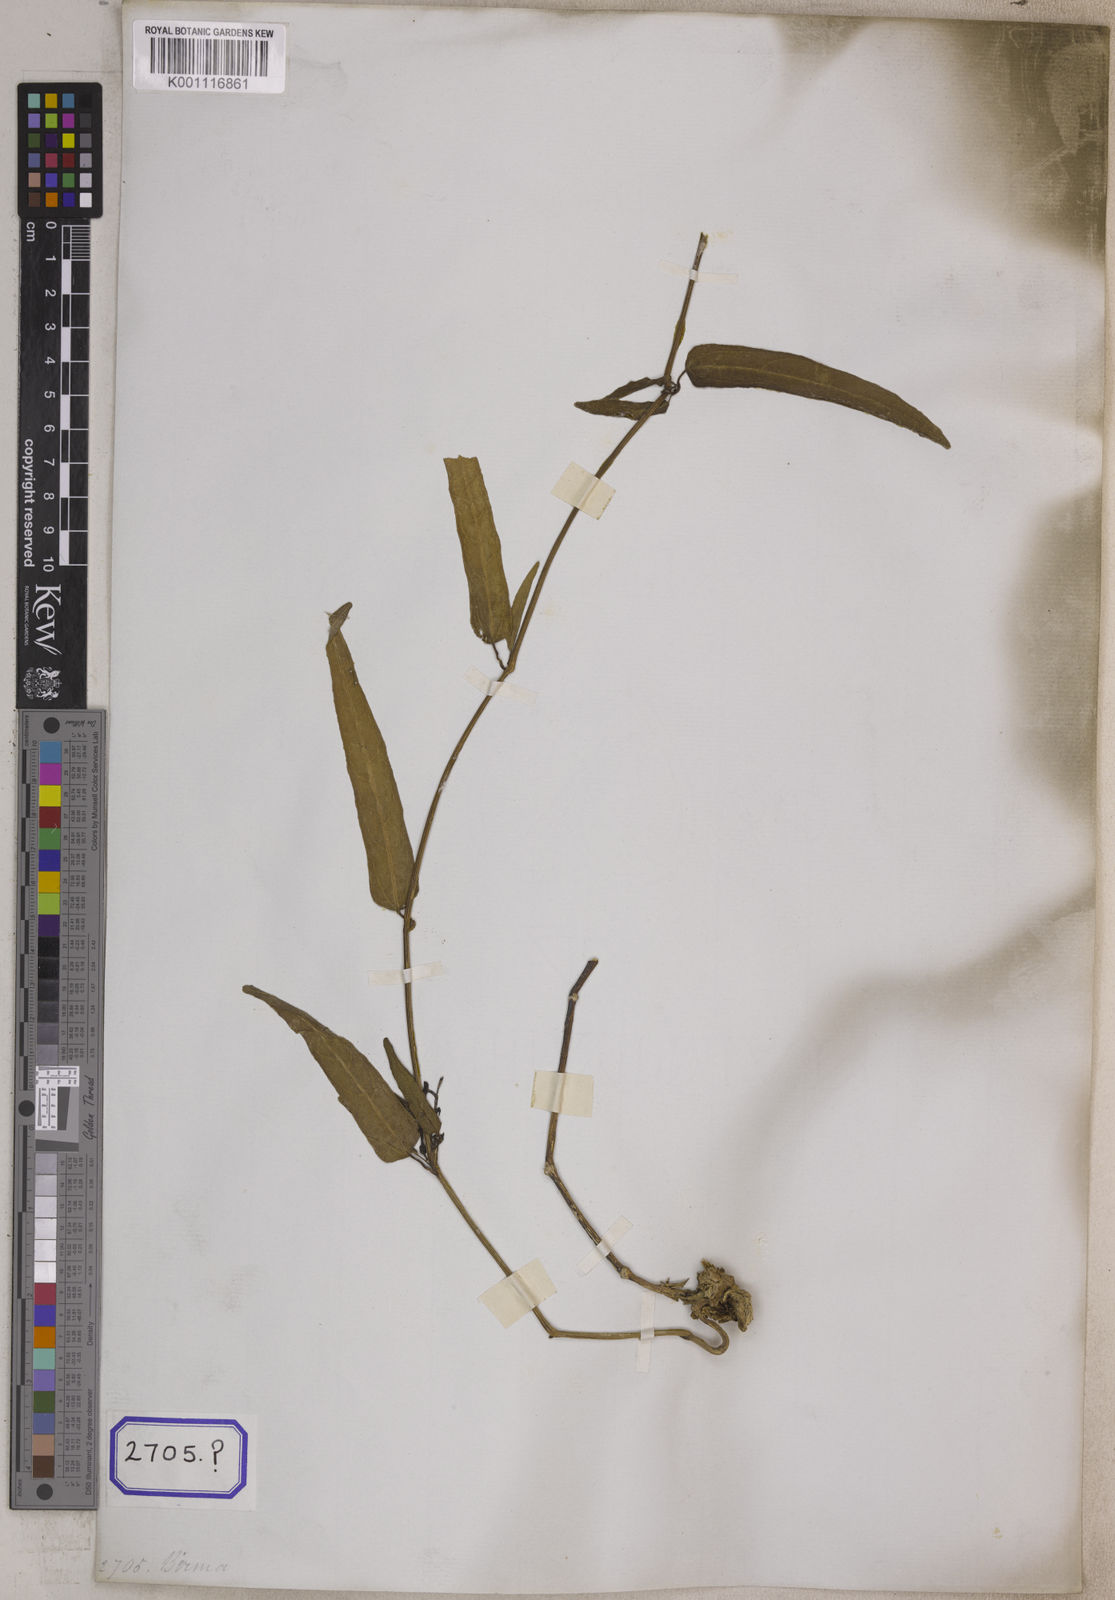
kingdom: Plantae
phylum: Tracheophyta
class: Magnoliopsida
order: Piperales
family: Aristolochiaceae
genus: Aristolochia
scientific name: Aristolochia acuminata
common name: Indian birthwort
